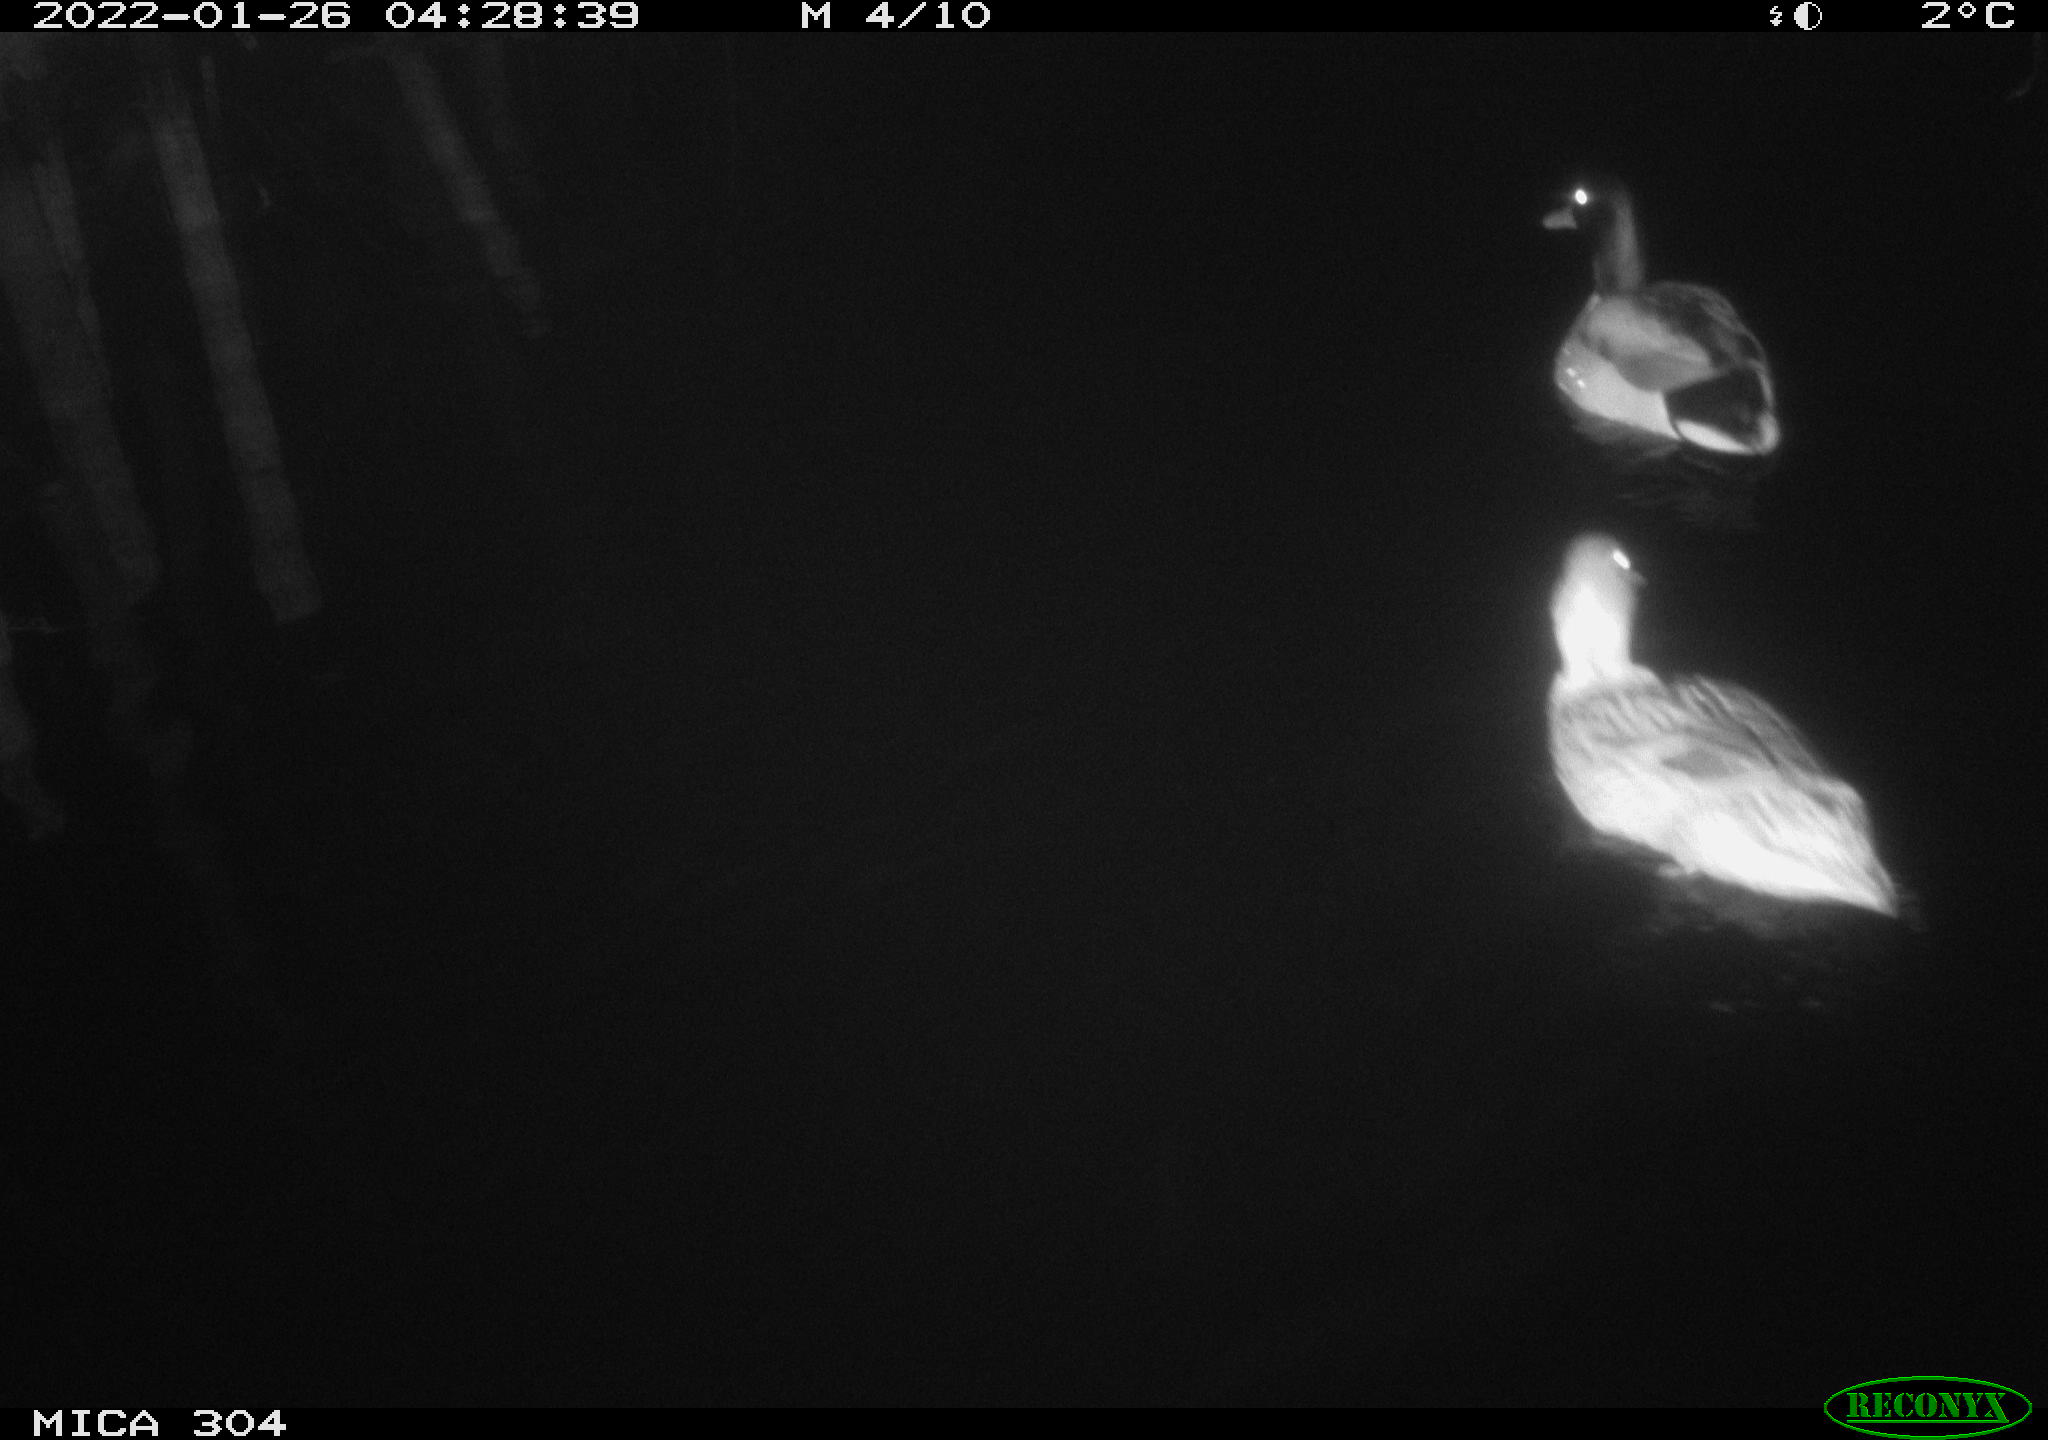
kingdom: Animalia
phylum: Chordata
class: Aves
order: Anseriformes
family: Anatidae
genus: Anas
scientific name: Anas
